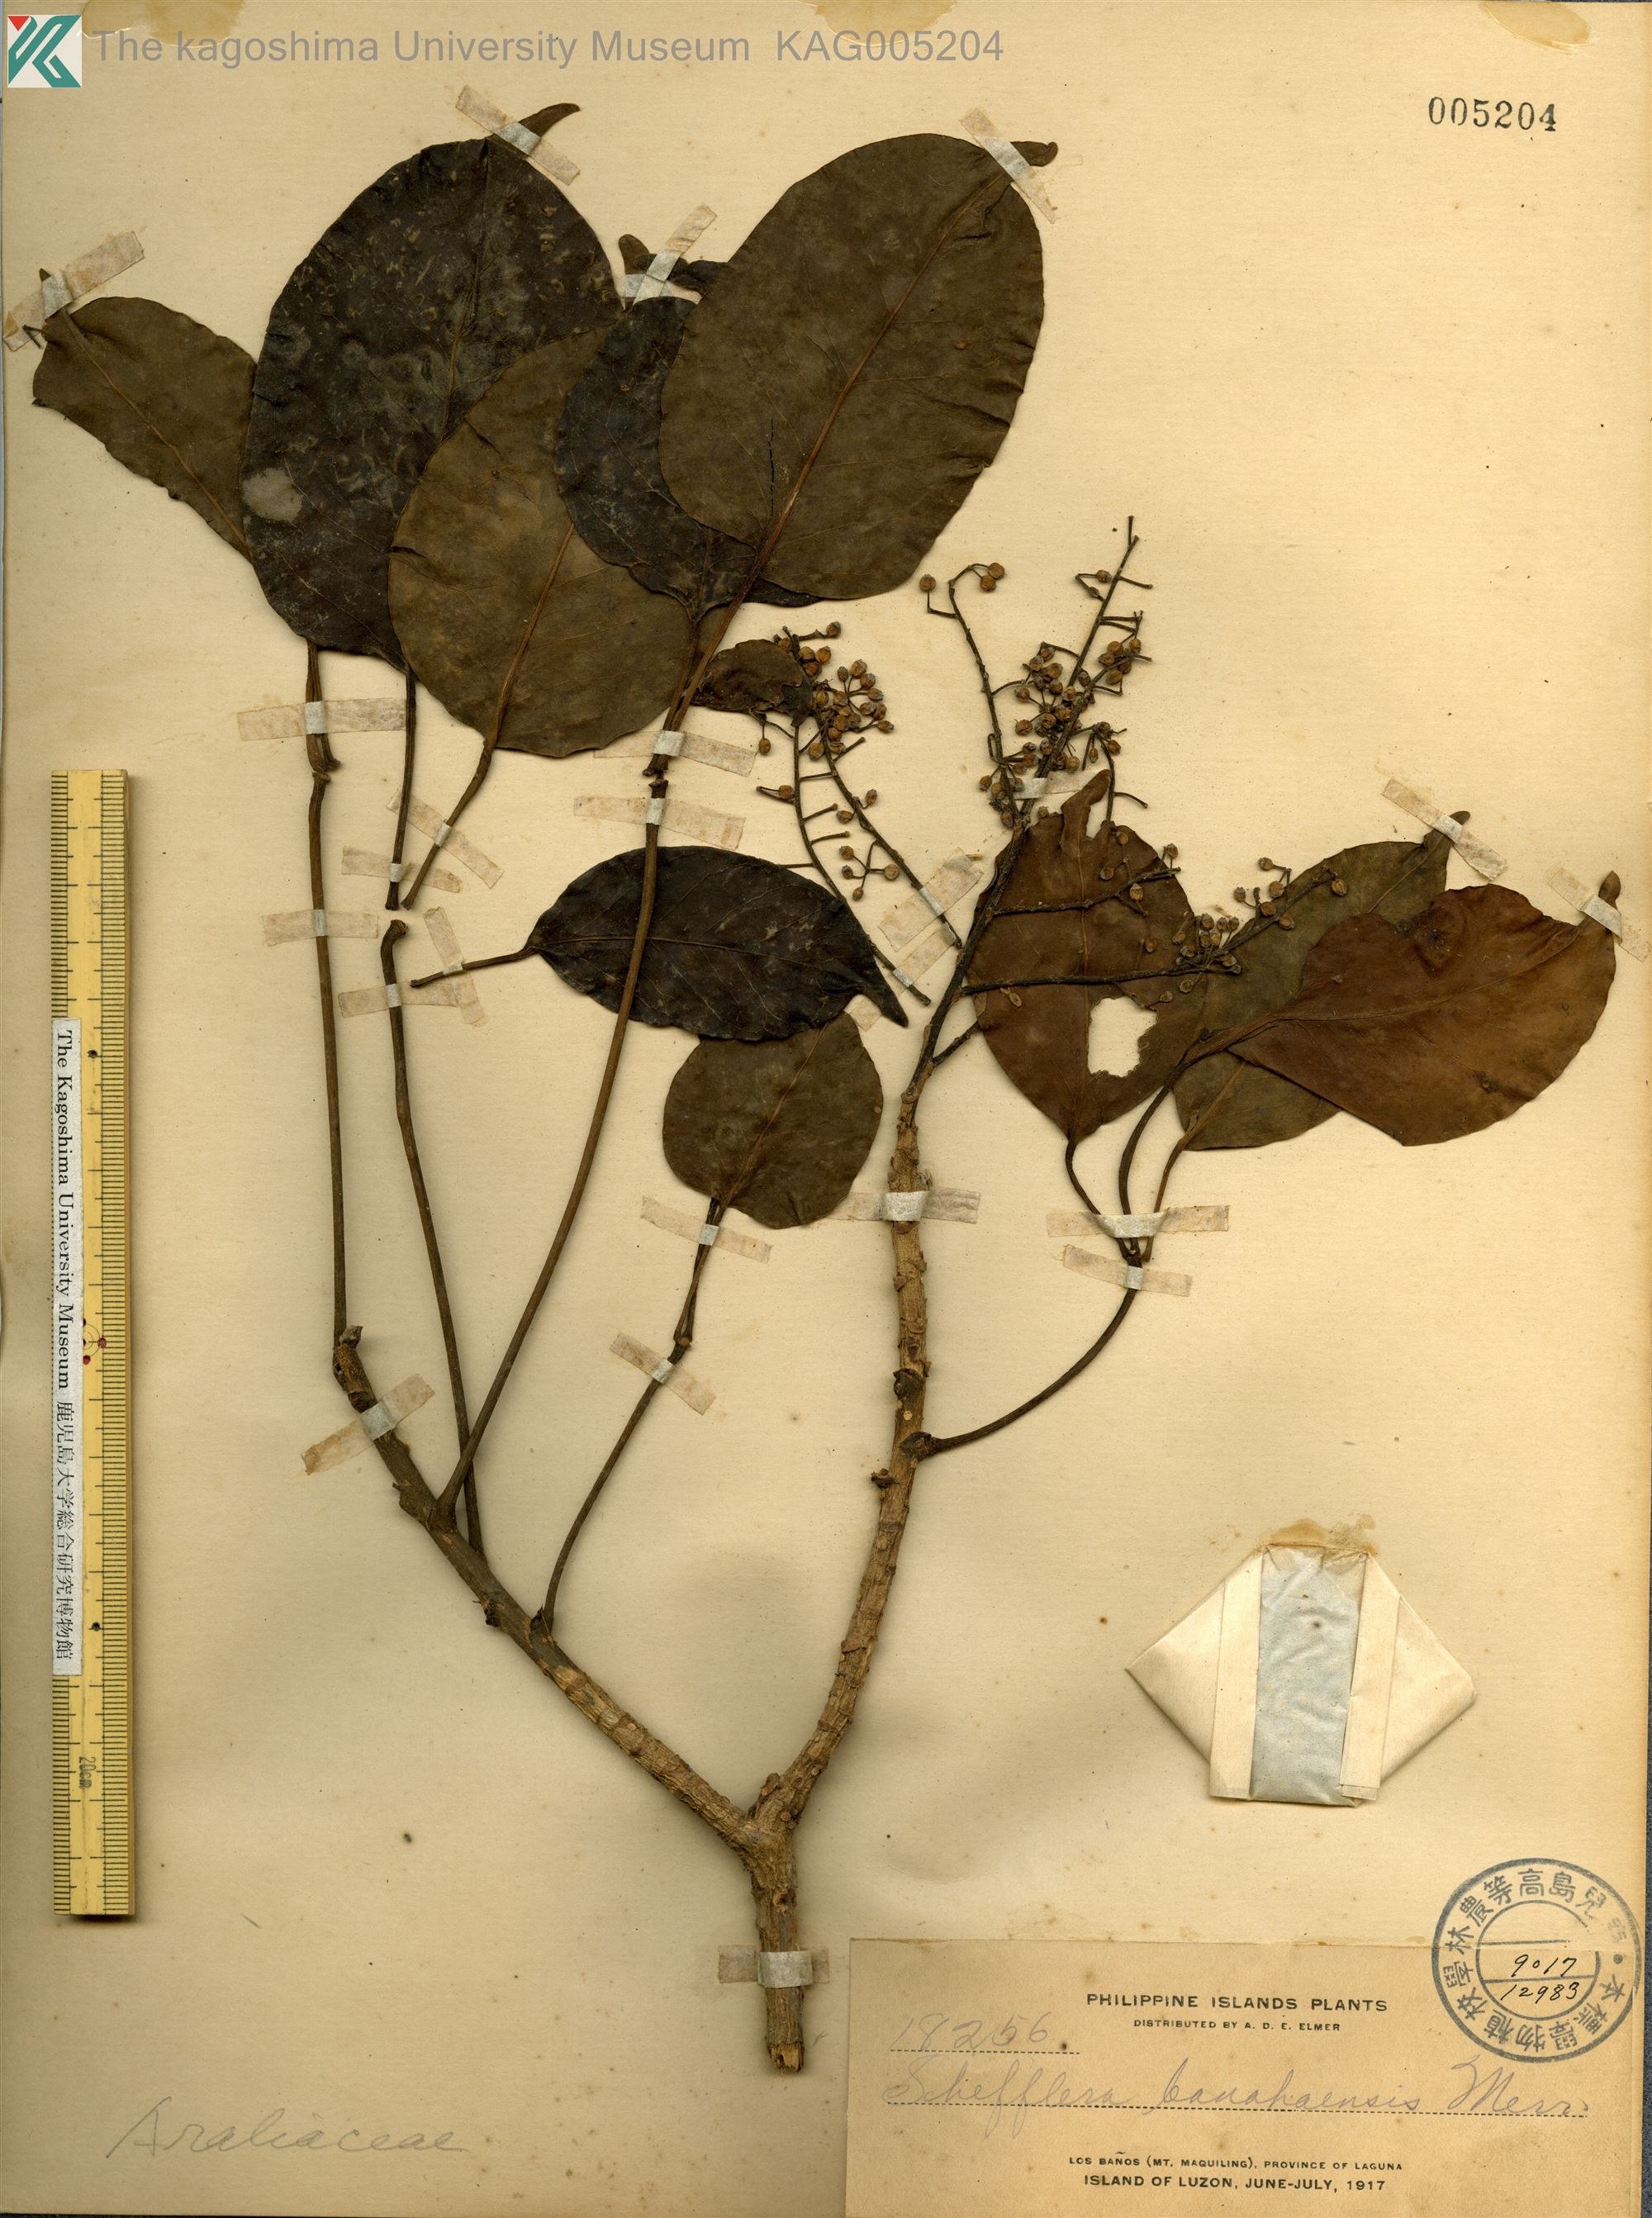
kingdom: Plantae
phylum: Tracheophyta
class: Magnoliopsida
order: Apiales
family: Araliaceae
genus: Heptapleurum
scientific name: Heptapleurum banahaense
